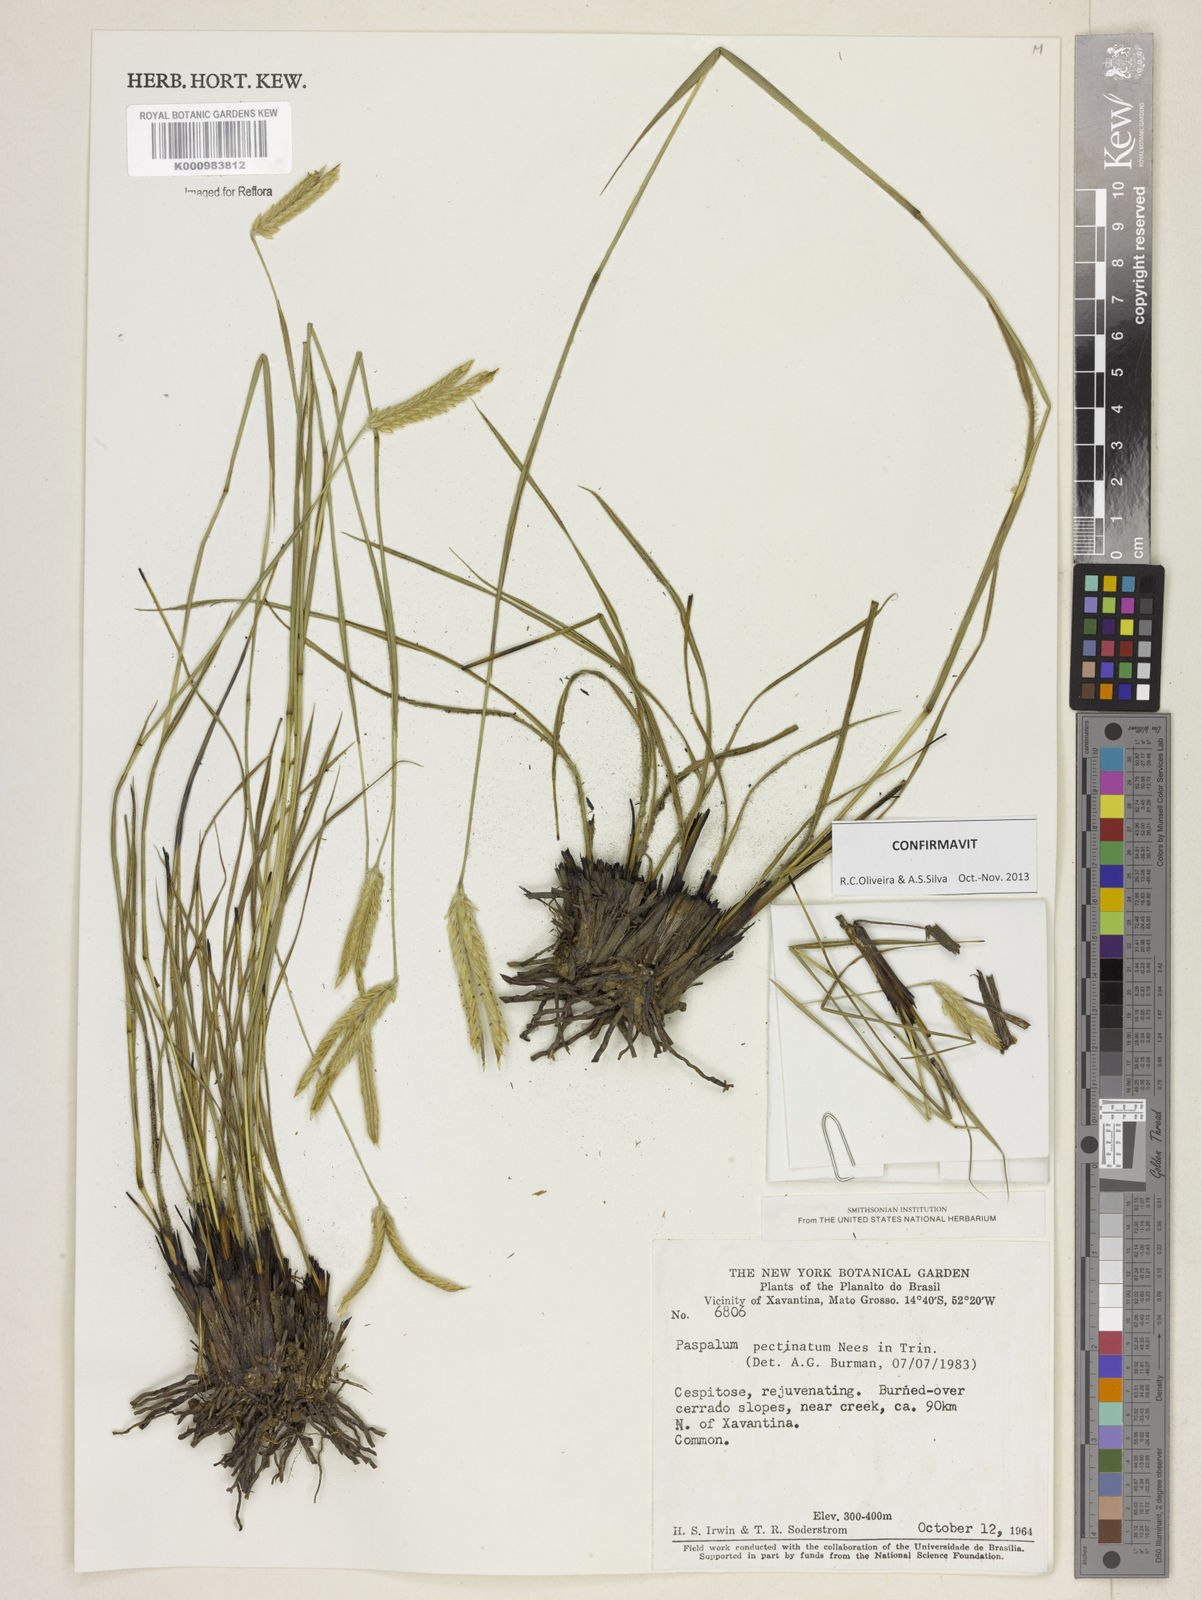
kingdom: Plantae
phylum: Tracheophyta
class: Liliopsida
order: Poales
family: Poaceae
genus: Paspalum
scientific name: Paspalum
